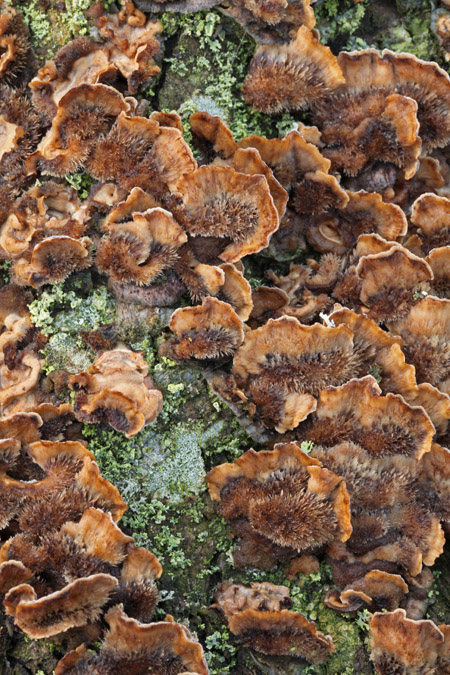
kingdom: Fungi
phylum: Basidiomycota
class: Agaricomycetes
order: Russulales
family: Stereaceae
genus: Stereum
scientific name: Stereum hirsutum
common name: håret lædersvamp
